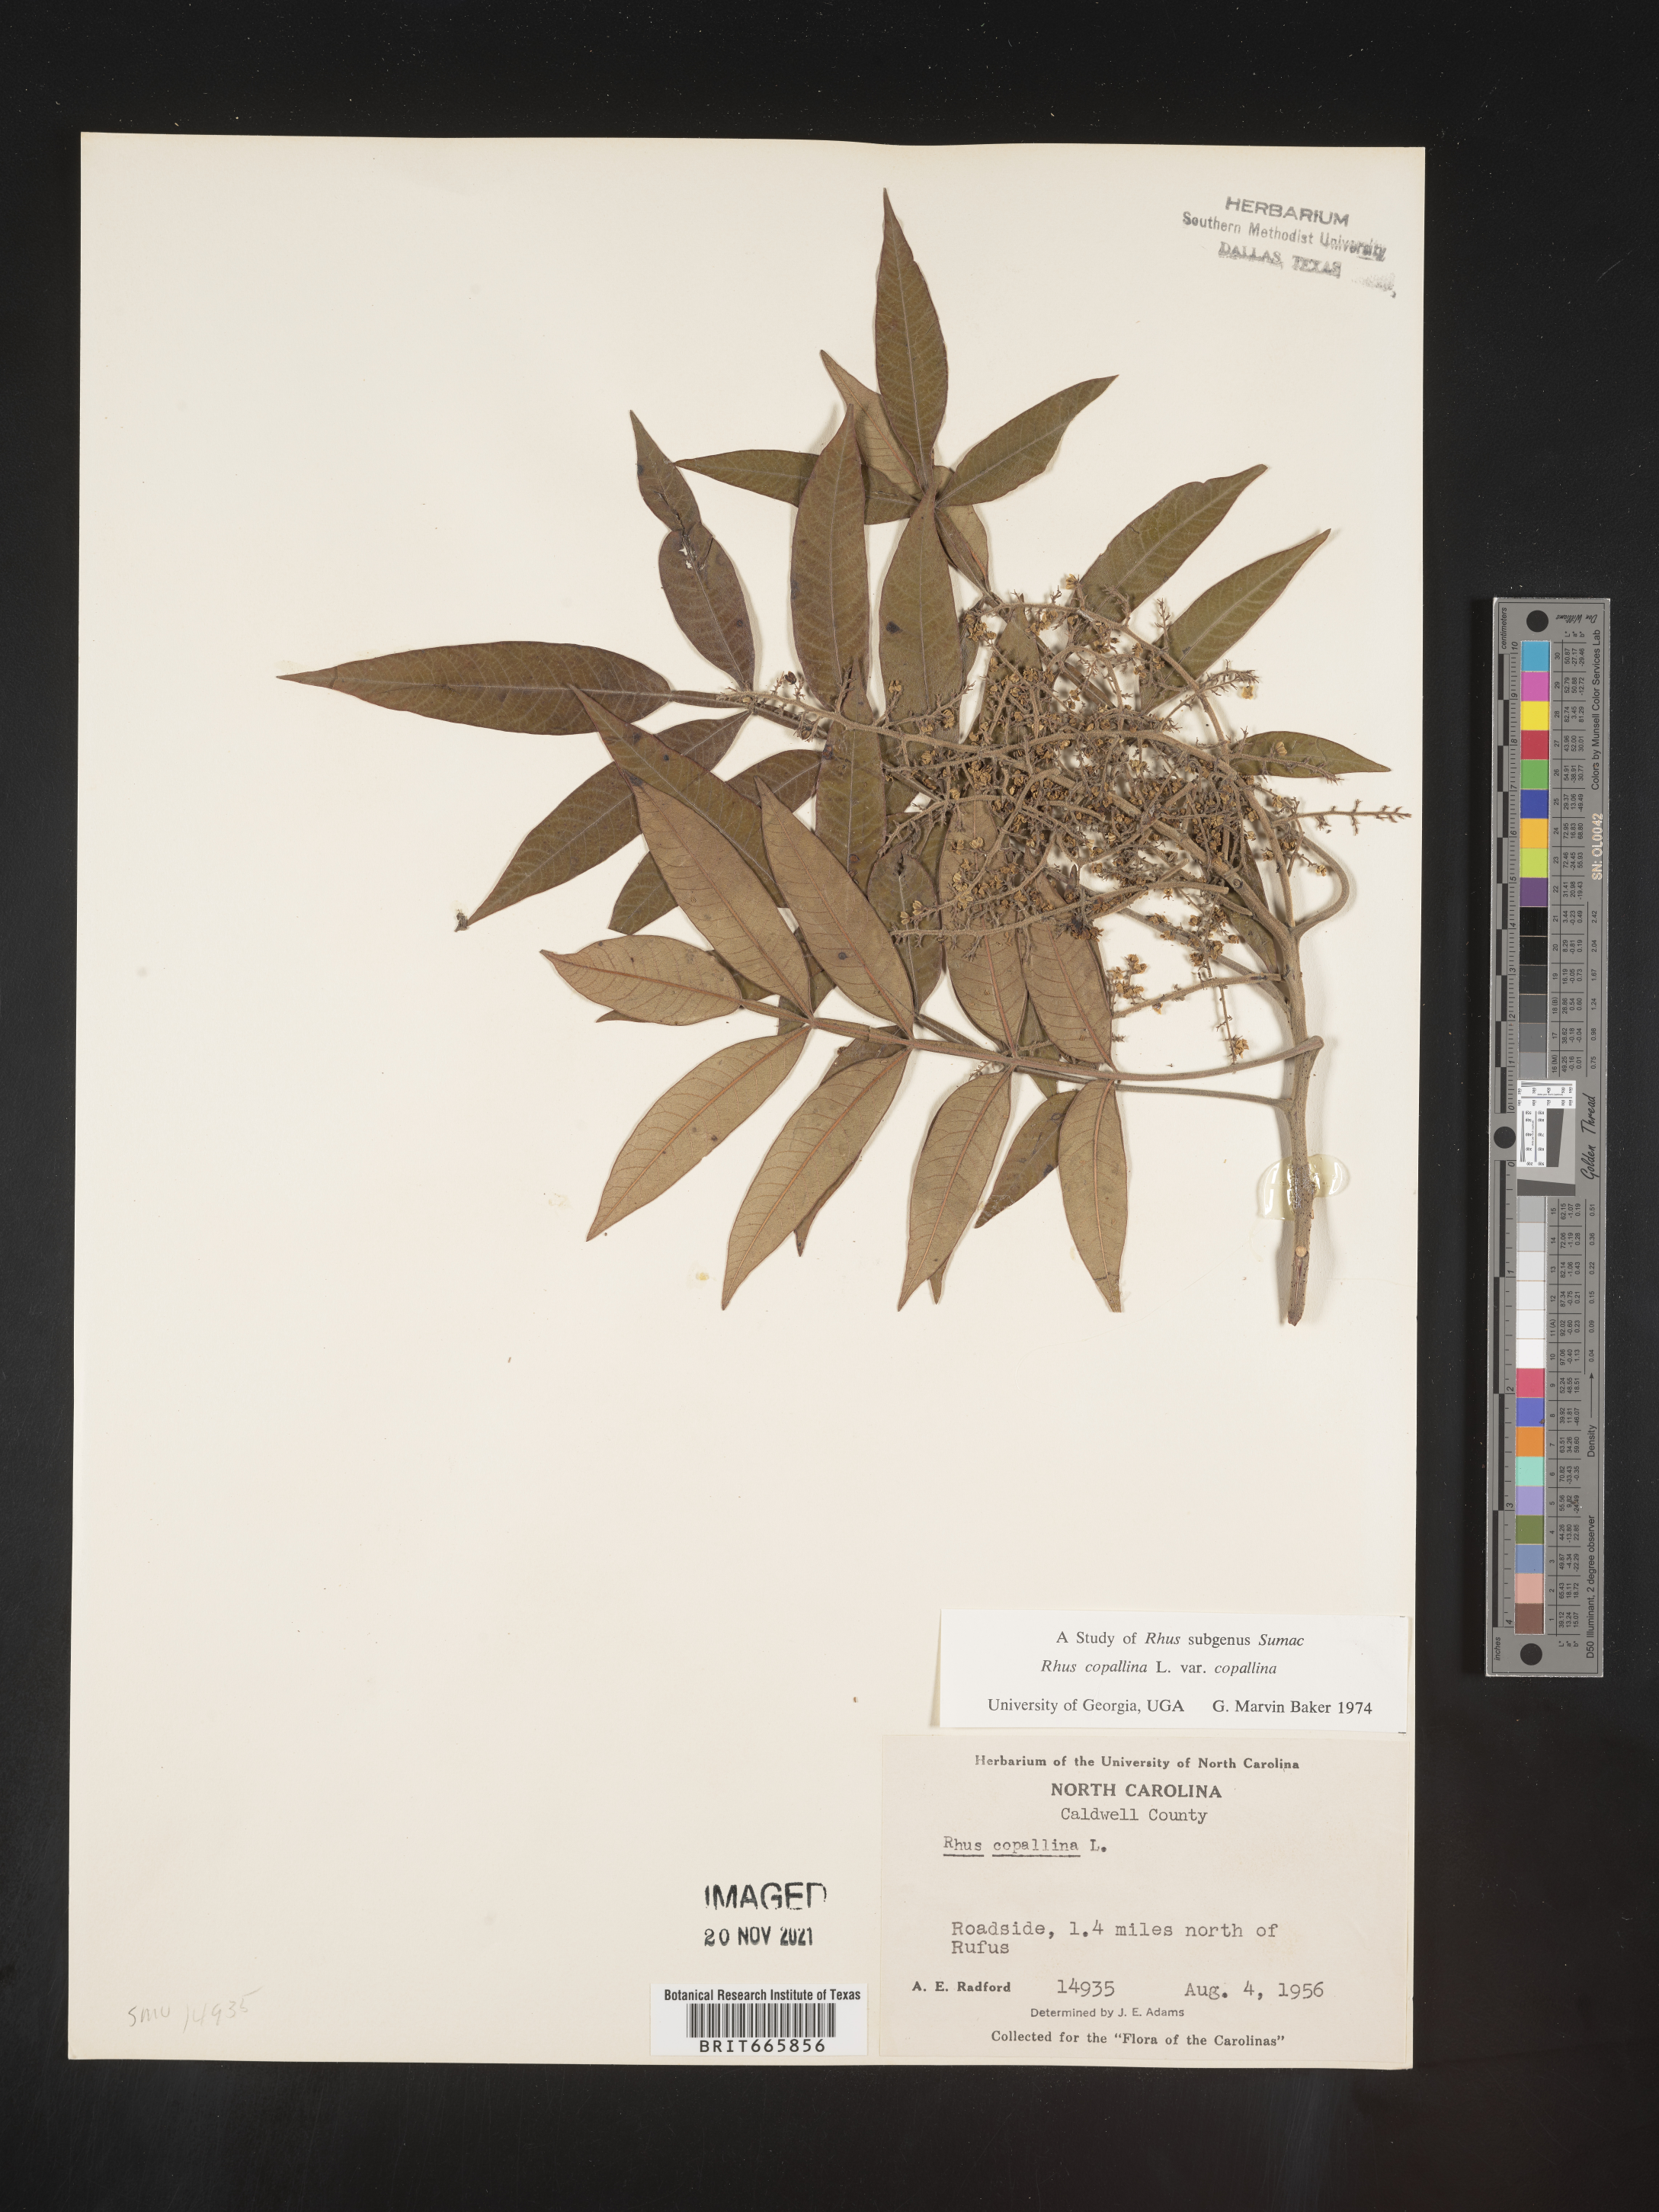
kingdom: Plantae
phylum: Tracheophyta
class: Magnoliopsida
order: Sapindales
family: Anacardiaceae
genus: Rhus
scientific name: Rhus copallina
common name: Shining sumac
